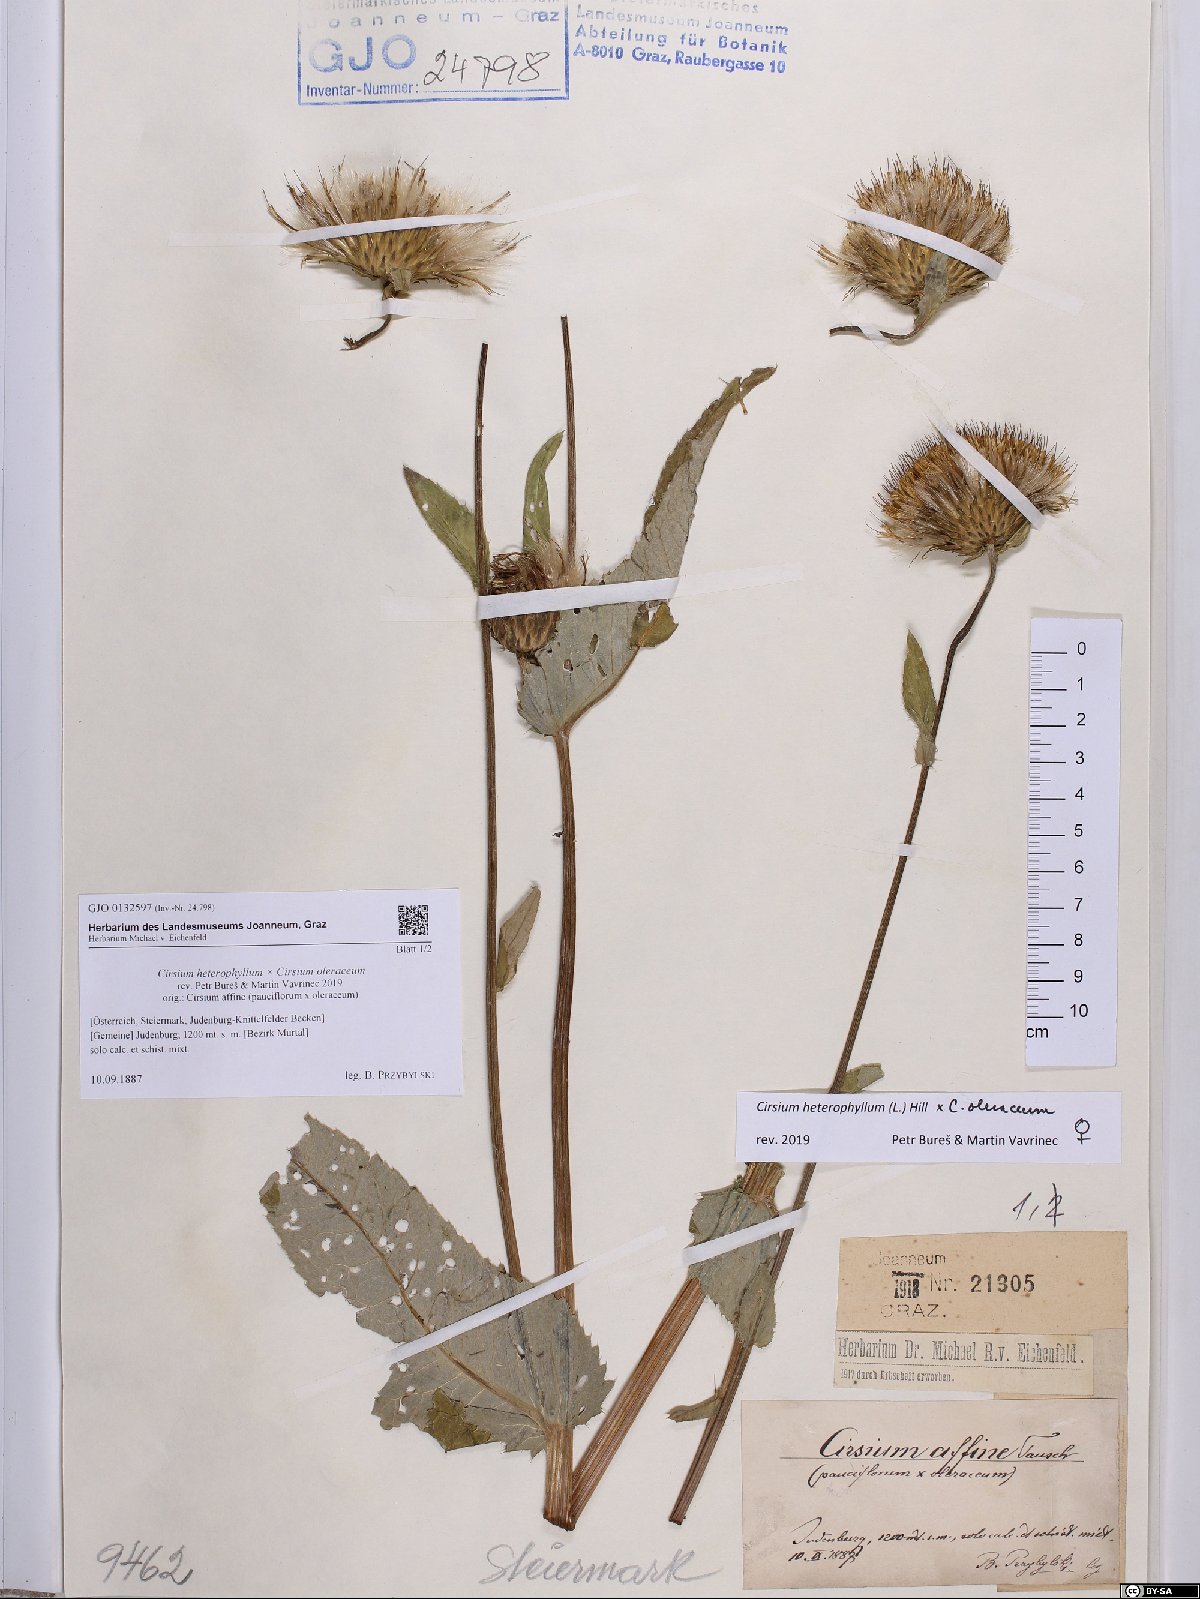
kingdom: Plantae
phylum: Tracheophyta
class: Magnoliopsida
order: Asterales
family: Asteraceae
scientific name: Asteraceae
